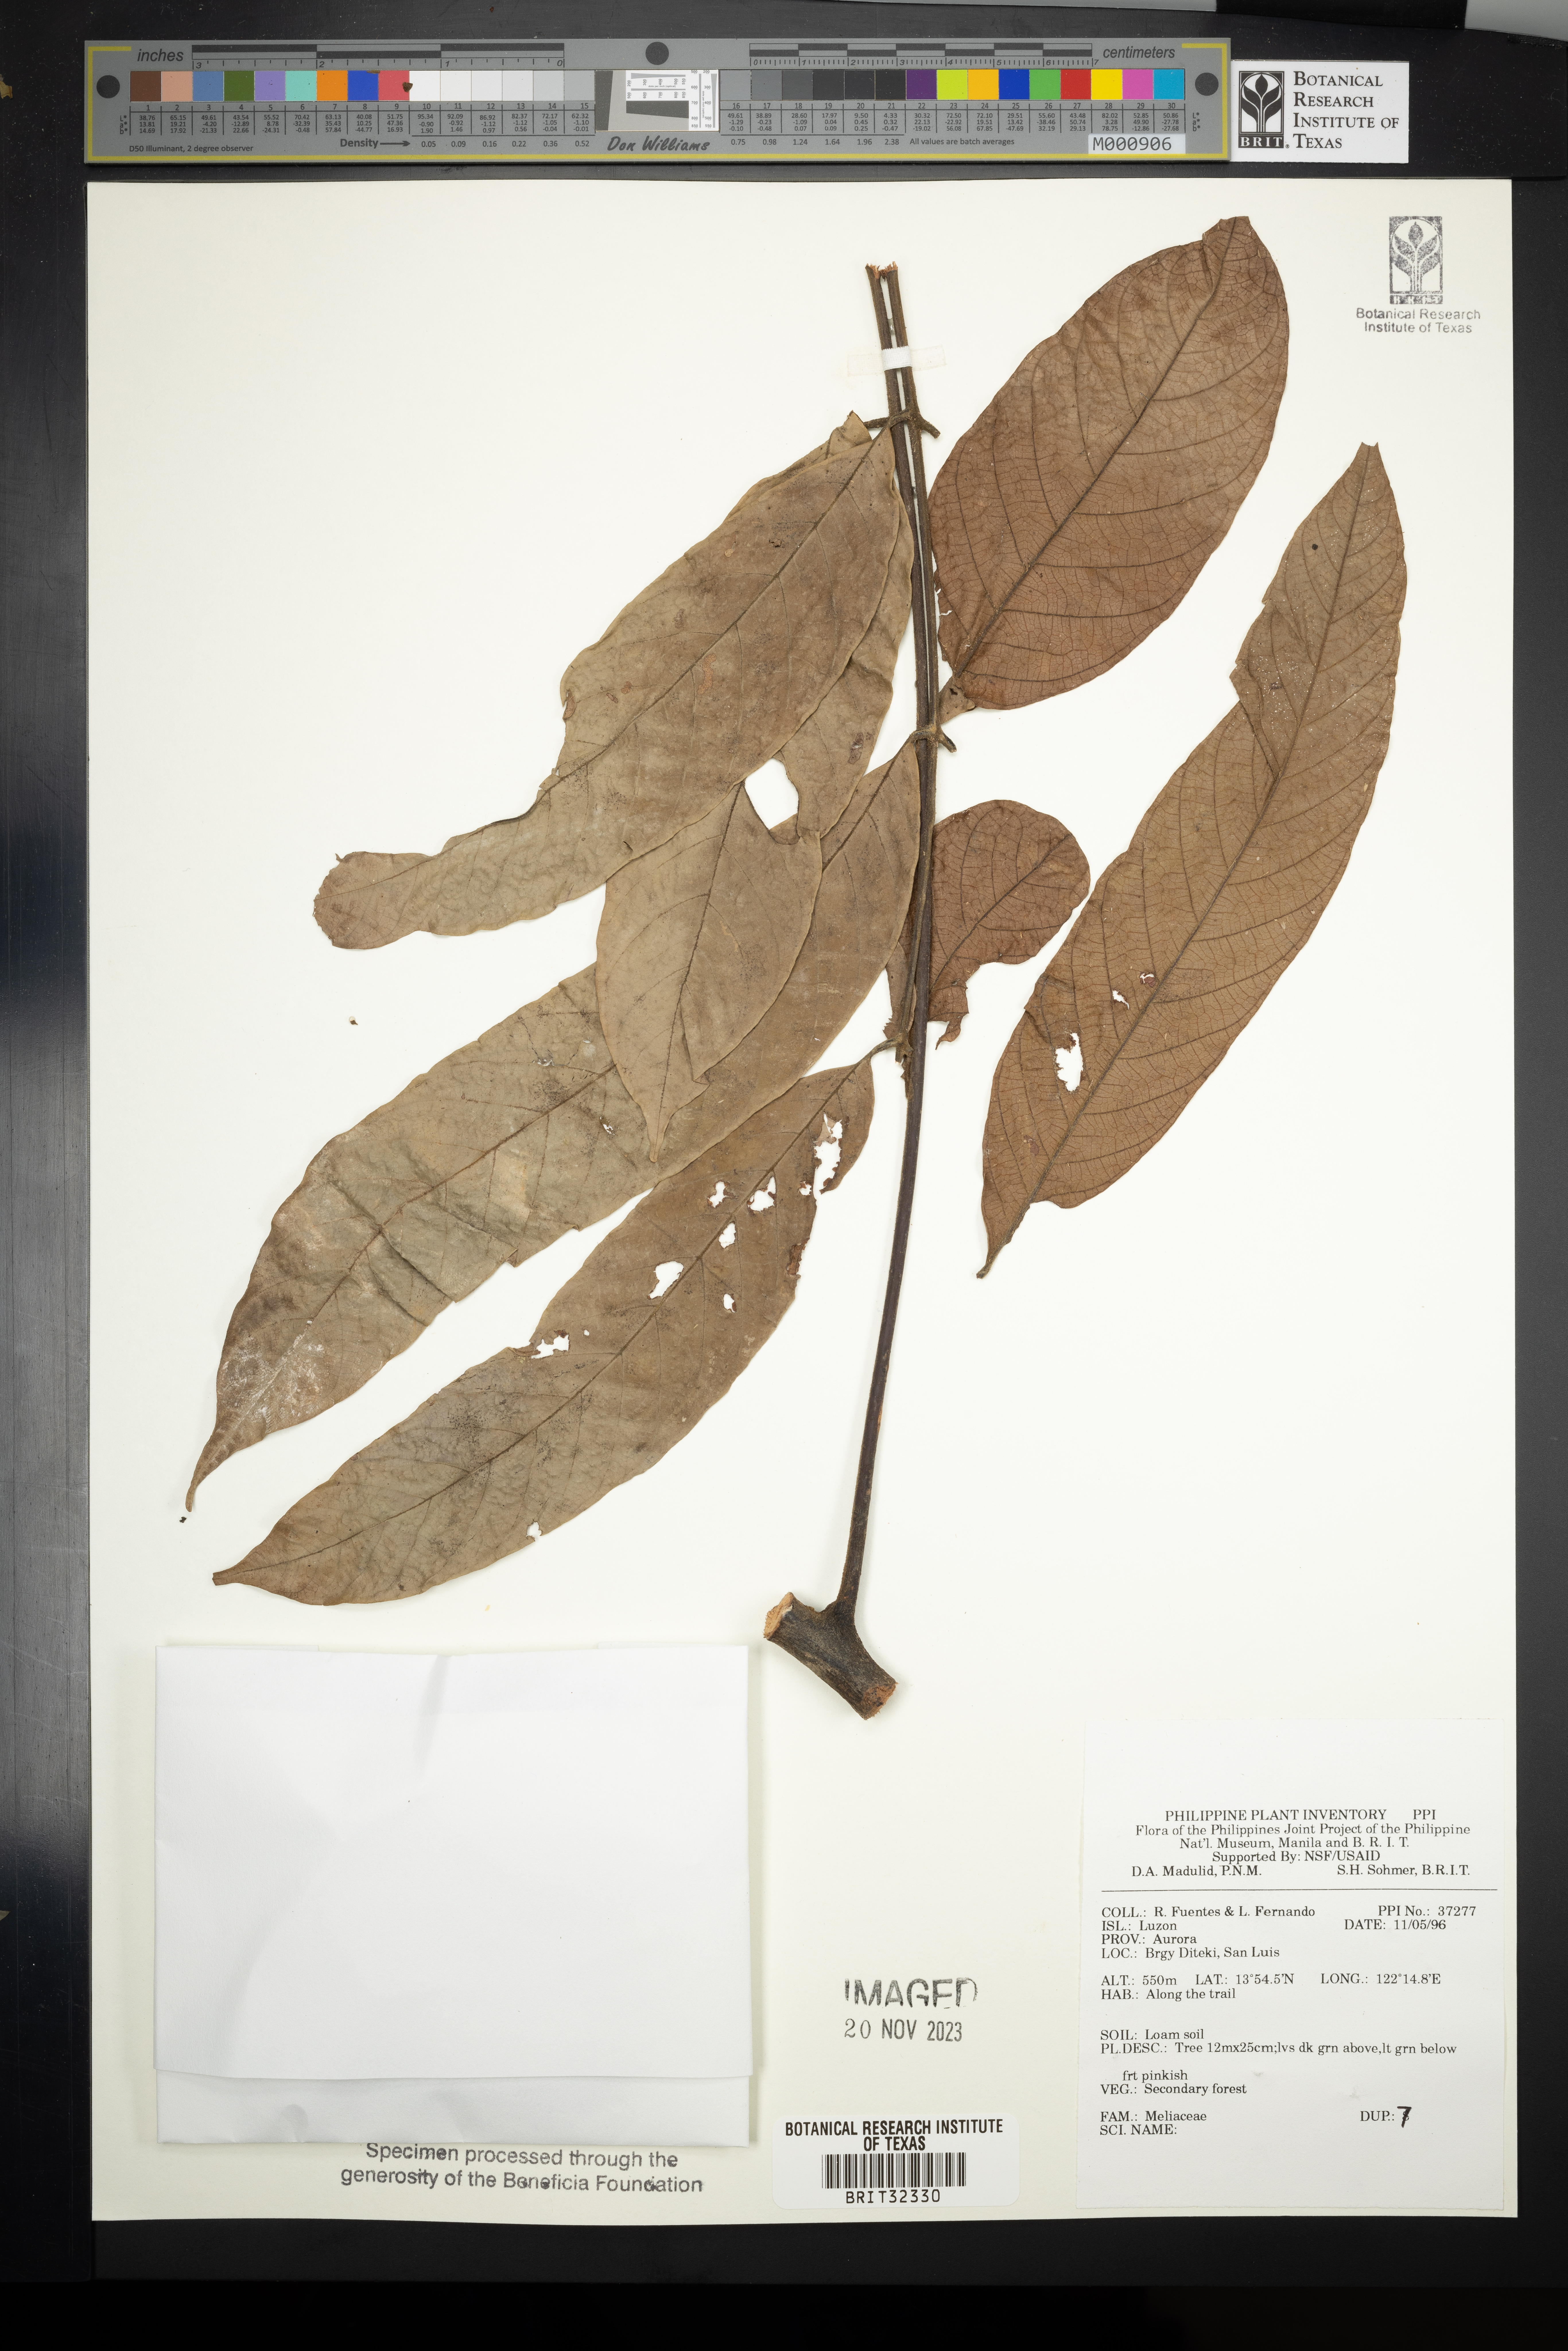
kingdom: Plantae
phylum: Tracheophyta
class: Magnoliopsida
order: Sapindales
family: Meliaceae
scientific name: Meliaceae
